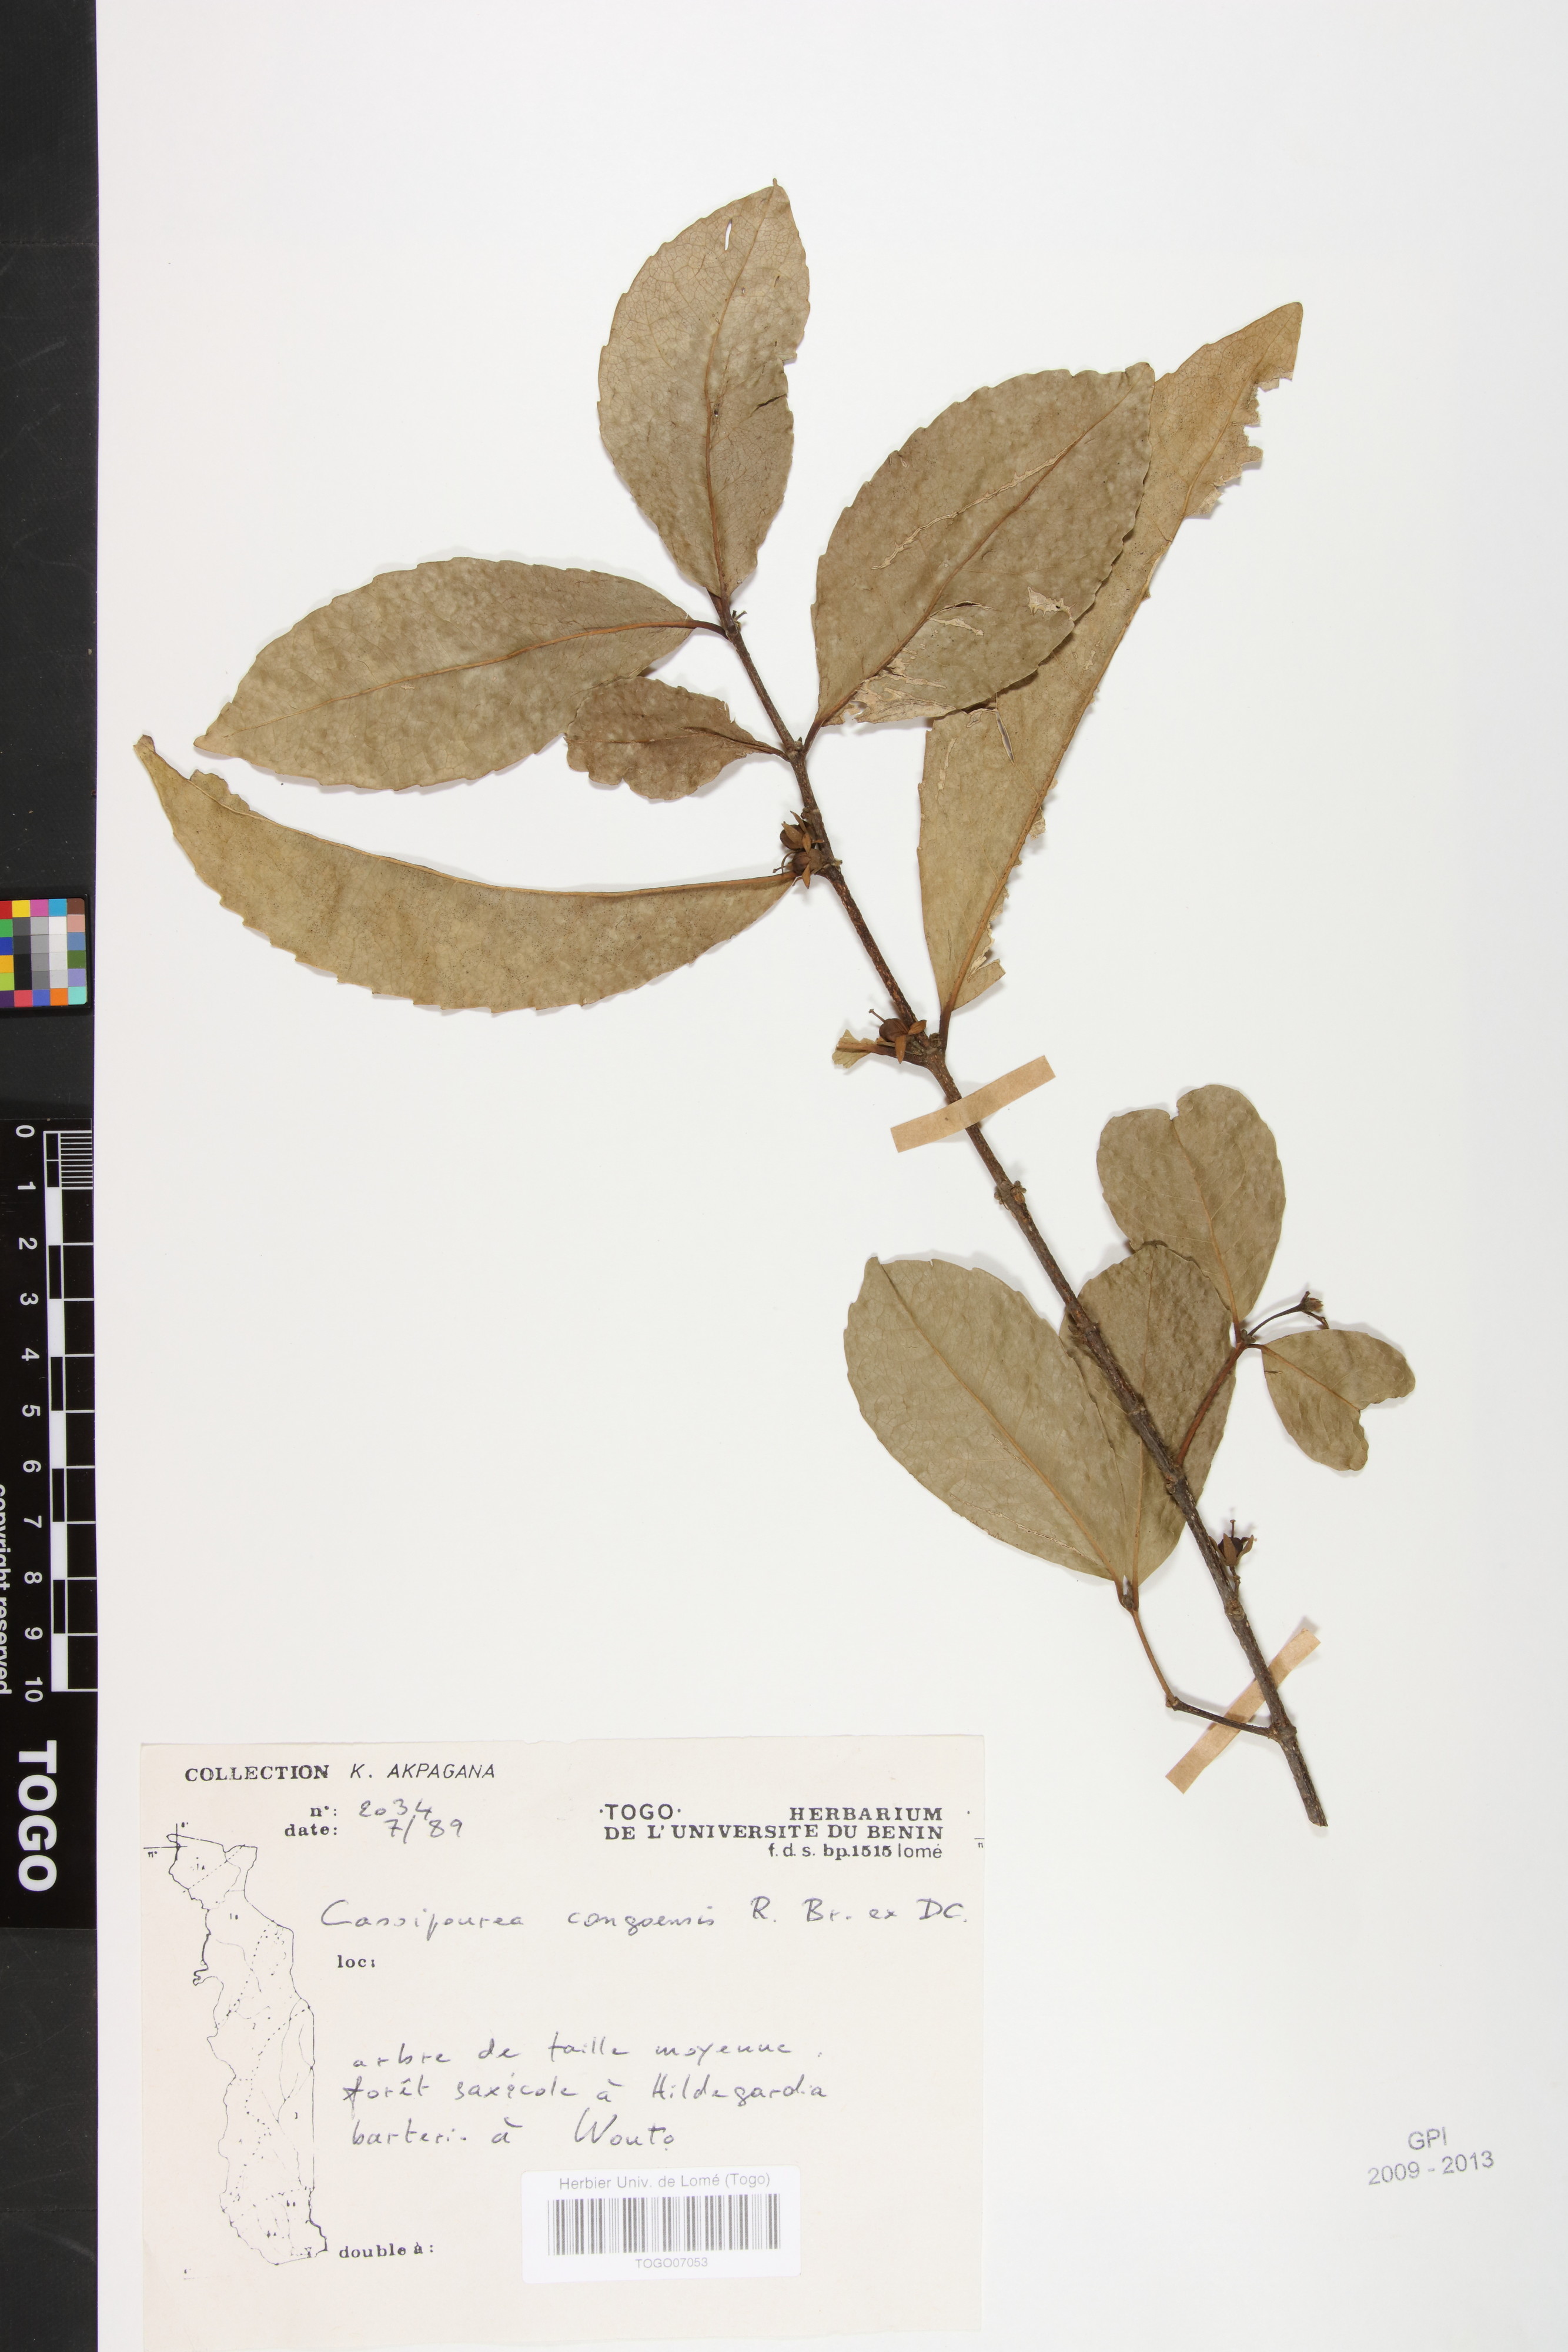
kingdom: Plantae
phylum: Tracheophyta
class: Magnoliopsida
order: Malpighiales
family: Rhizophoraceae
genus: Cassipourea
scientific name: Cassipourea congoensis
